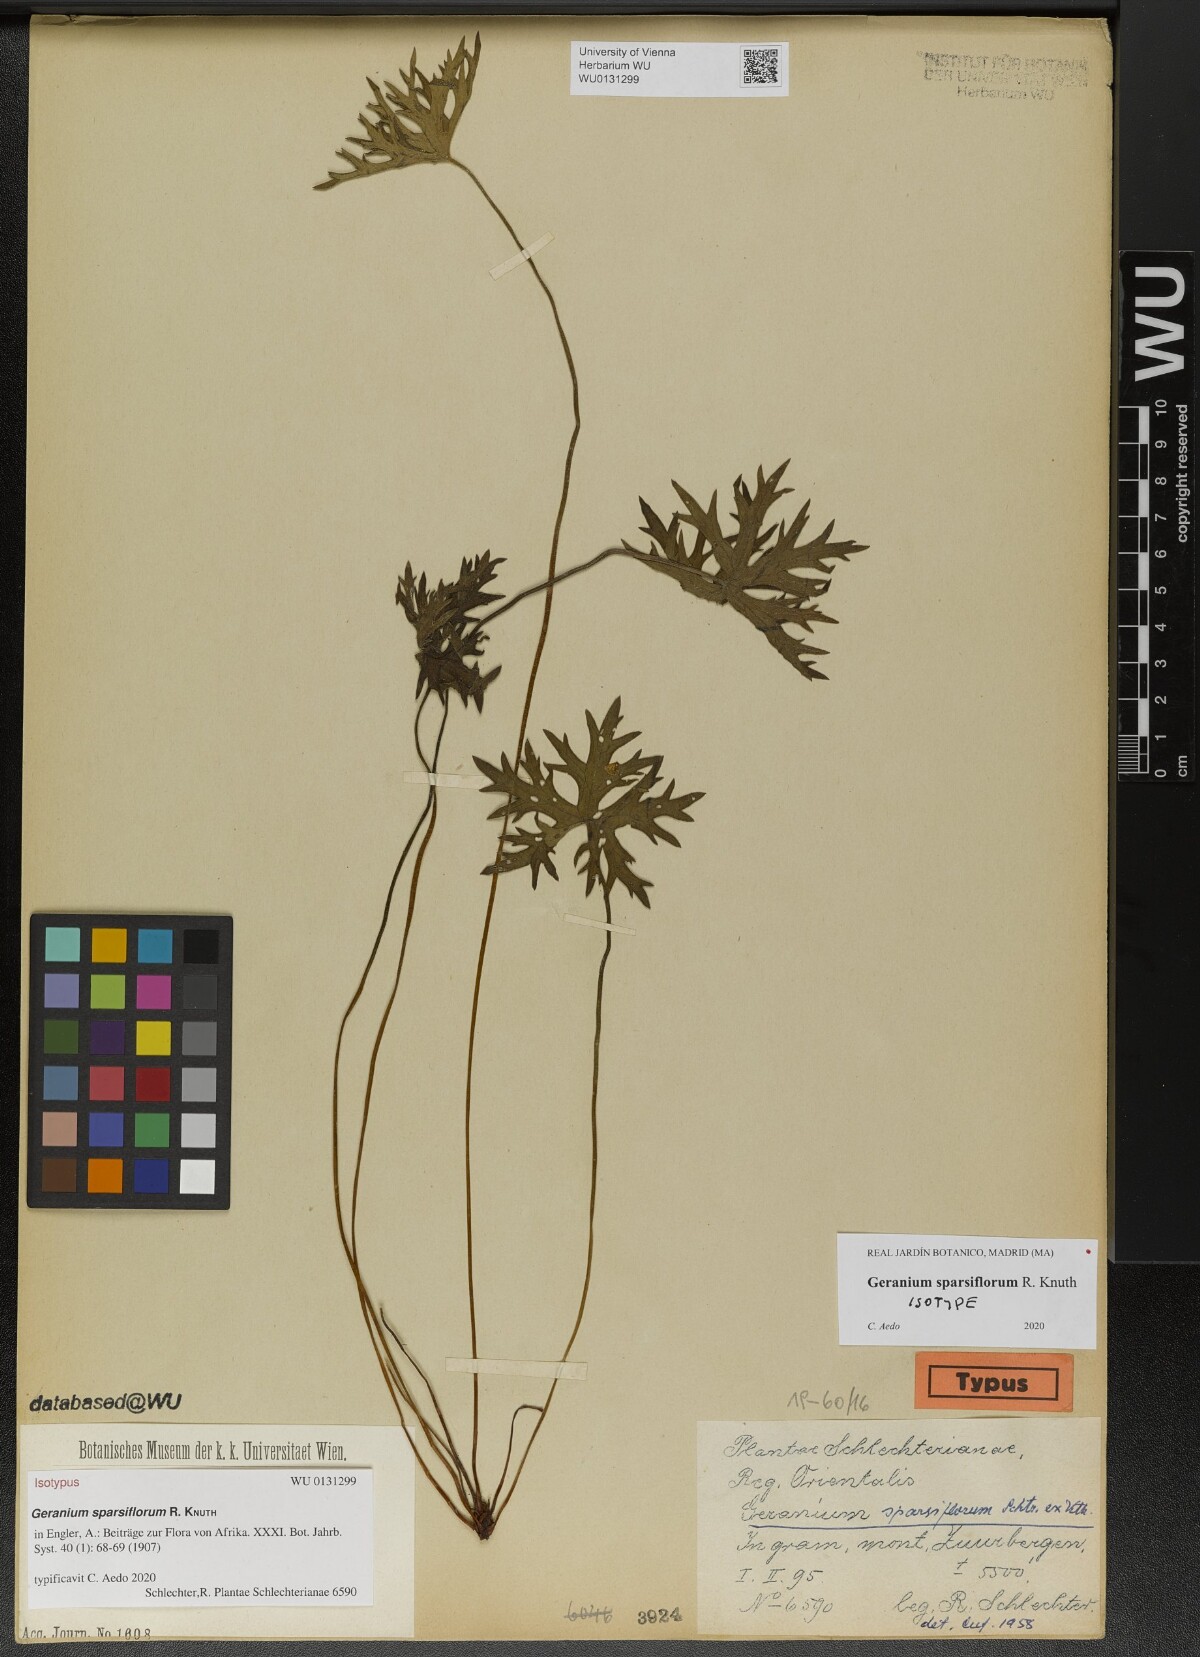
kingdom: Plantae
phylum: Tracheophyta
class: Magnoliopsida
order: Geraniales
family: Geraniaceae
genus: Geranium
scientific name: Geranium sparsiflorum
